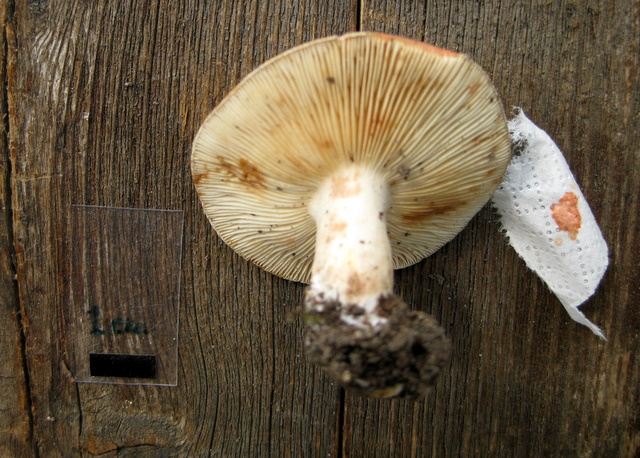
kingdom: Fungi
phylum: Basidiomycota
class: Agaricomycetes
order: Russulales
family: Russulaceae
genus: Lactarius
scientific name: Lactarius acris
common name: rosamælket mælkehat
